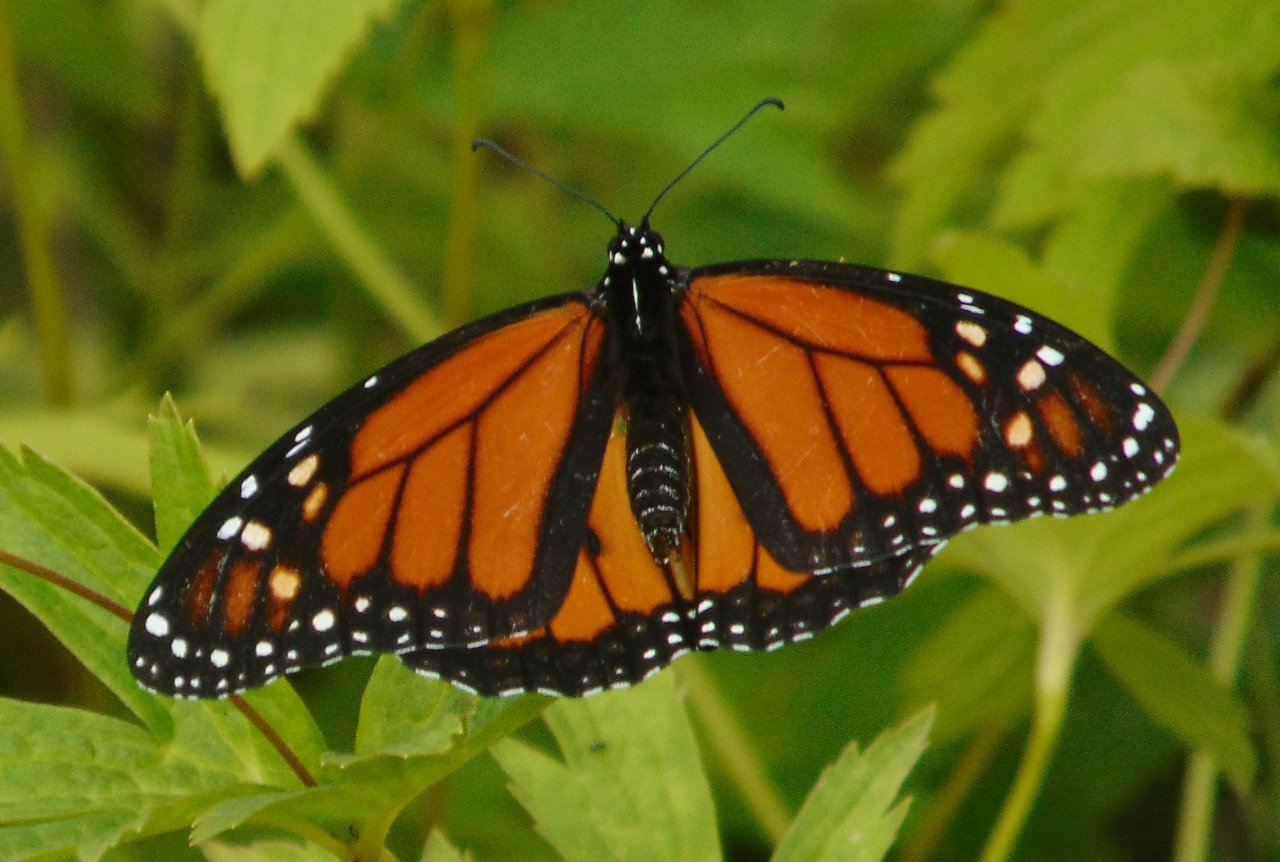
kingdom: Animalia
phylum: Arthropoda
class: Insecta
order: Lepidoptera
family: Nymphalidae
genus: Danaus
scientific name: Danaus plexippus
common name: Monarch
